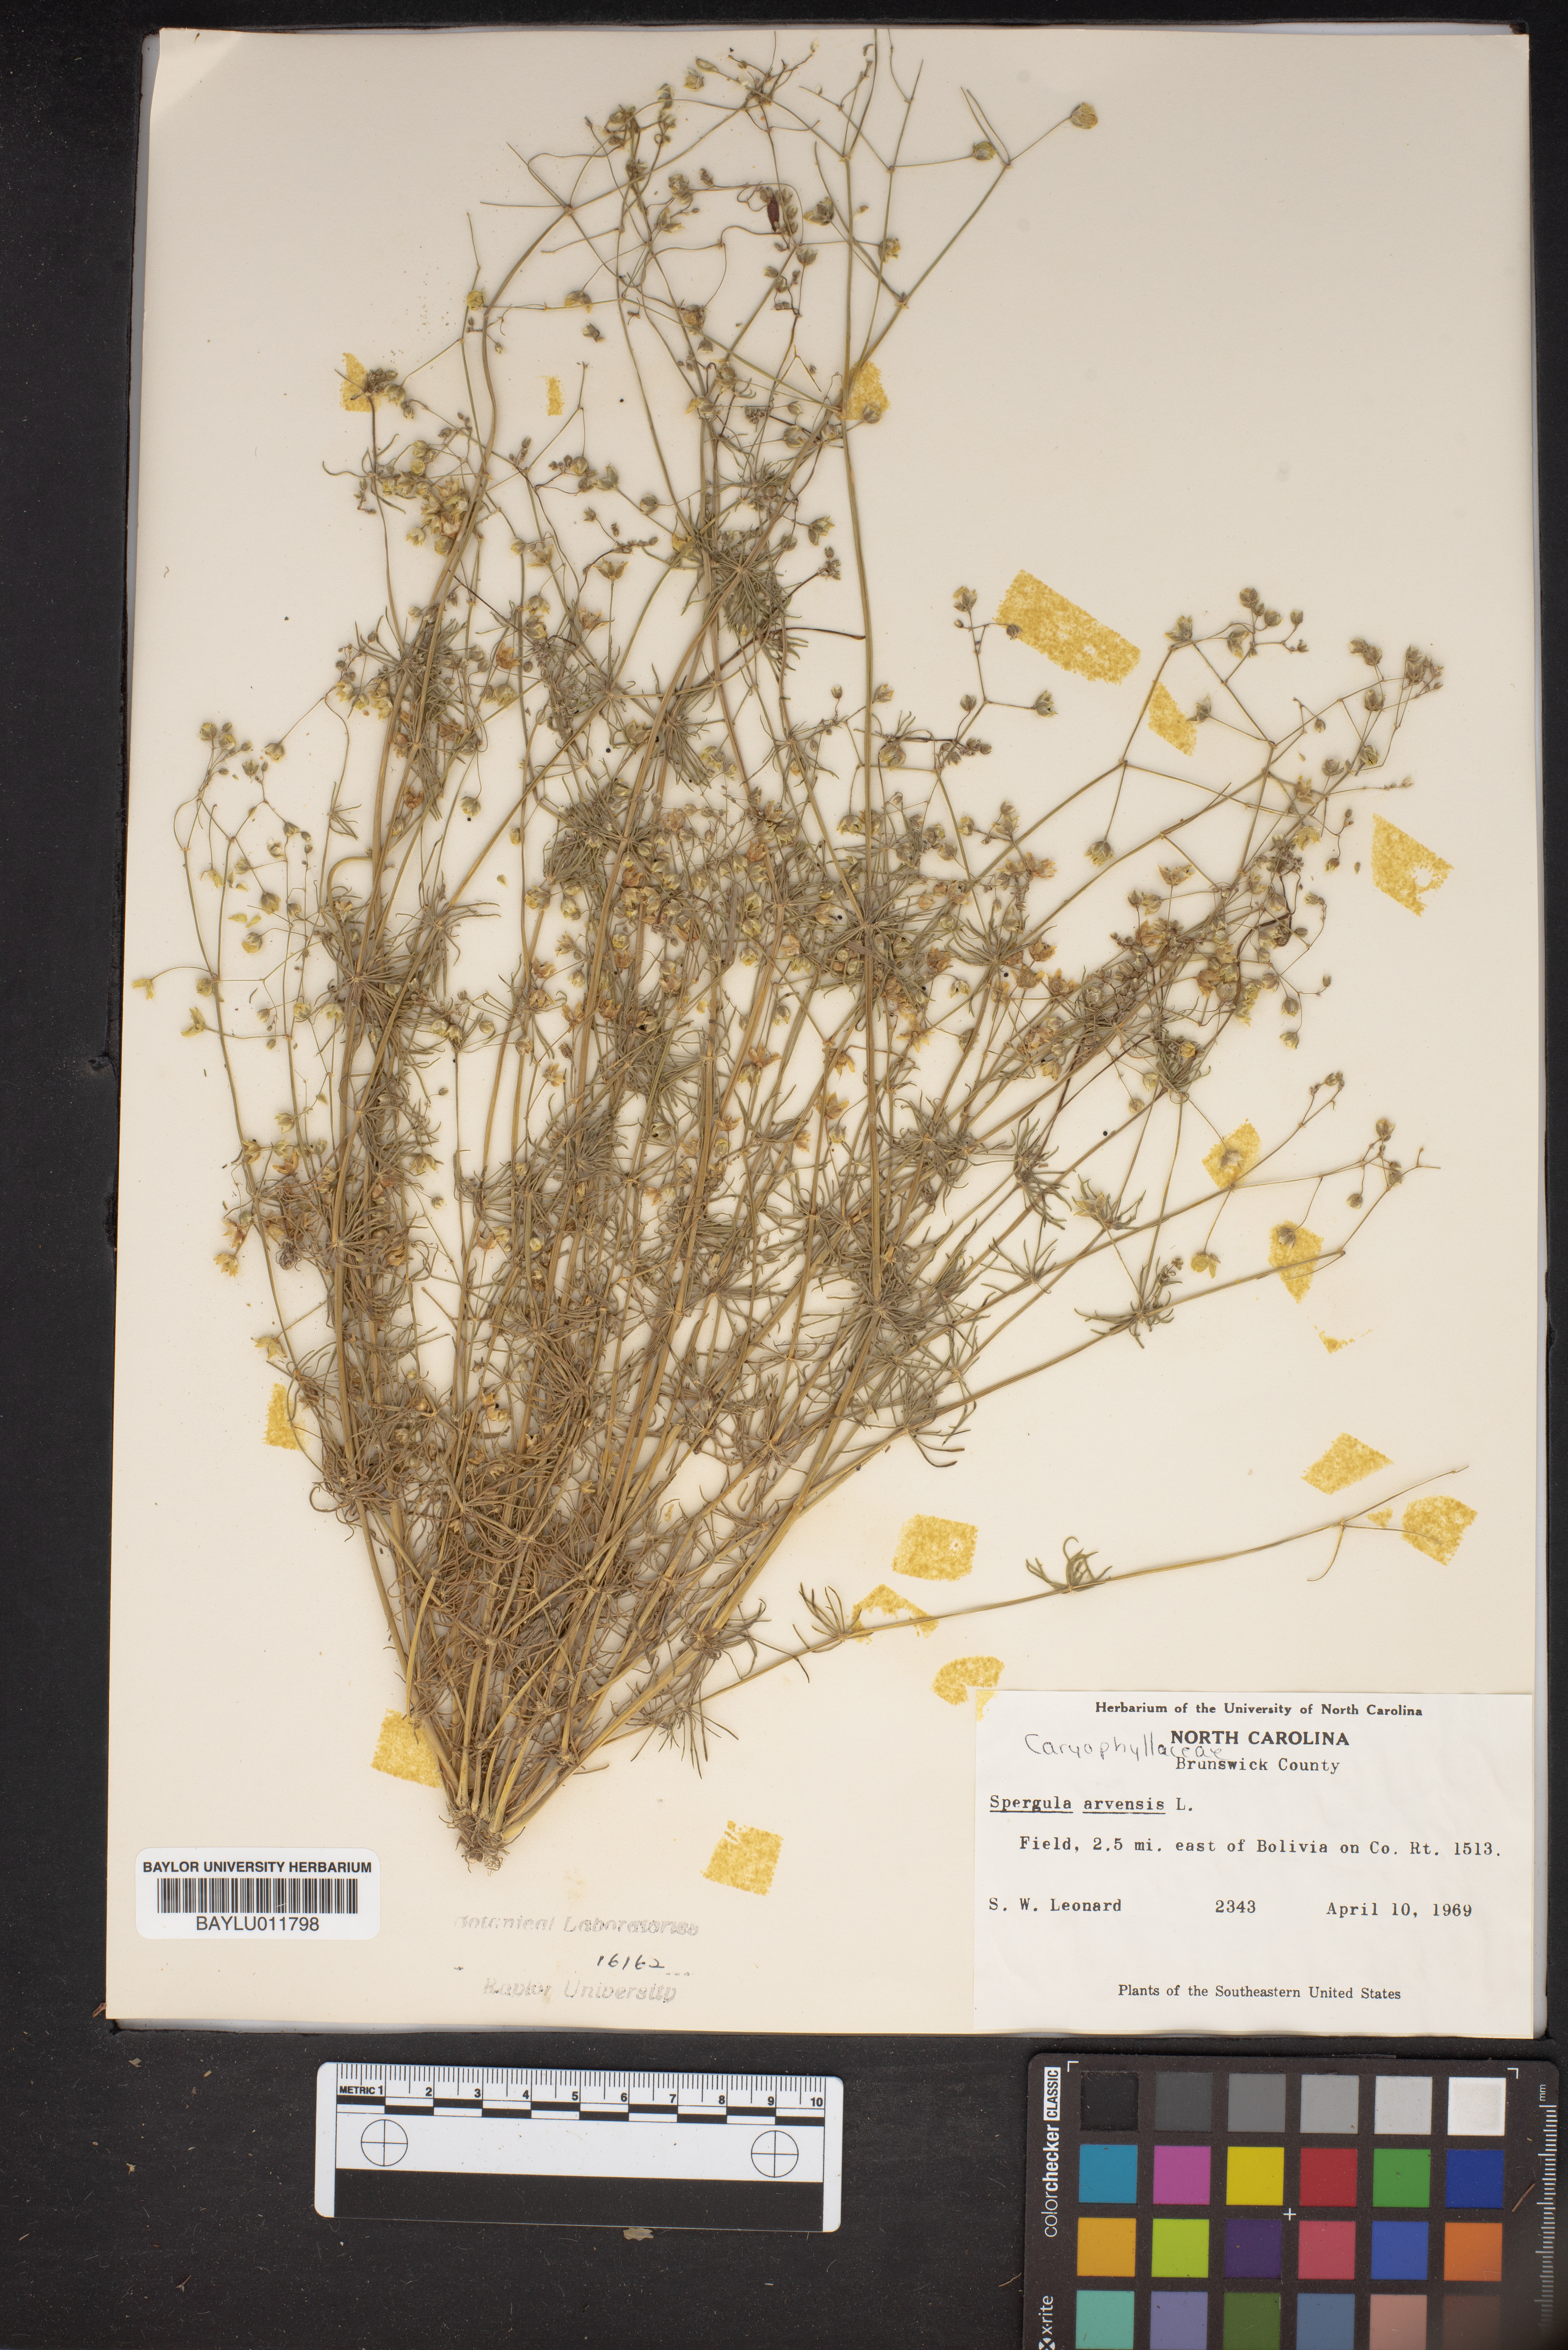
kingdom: Plantae
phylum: Tracheophyta
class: Magnoliopsida
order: Caryophyllales
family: Caryophyllaceae
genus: Spergula
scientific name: Spergula arvensis
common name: Corn spurrey
